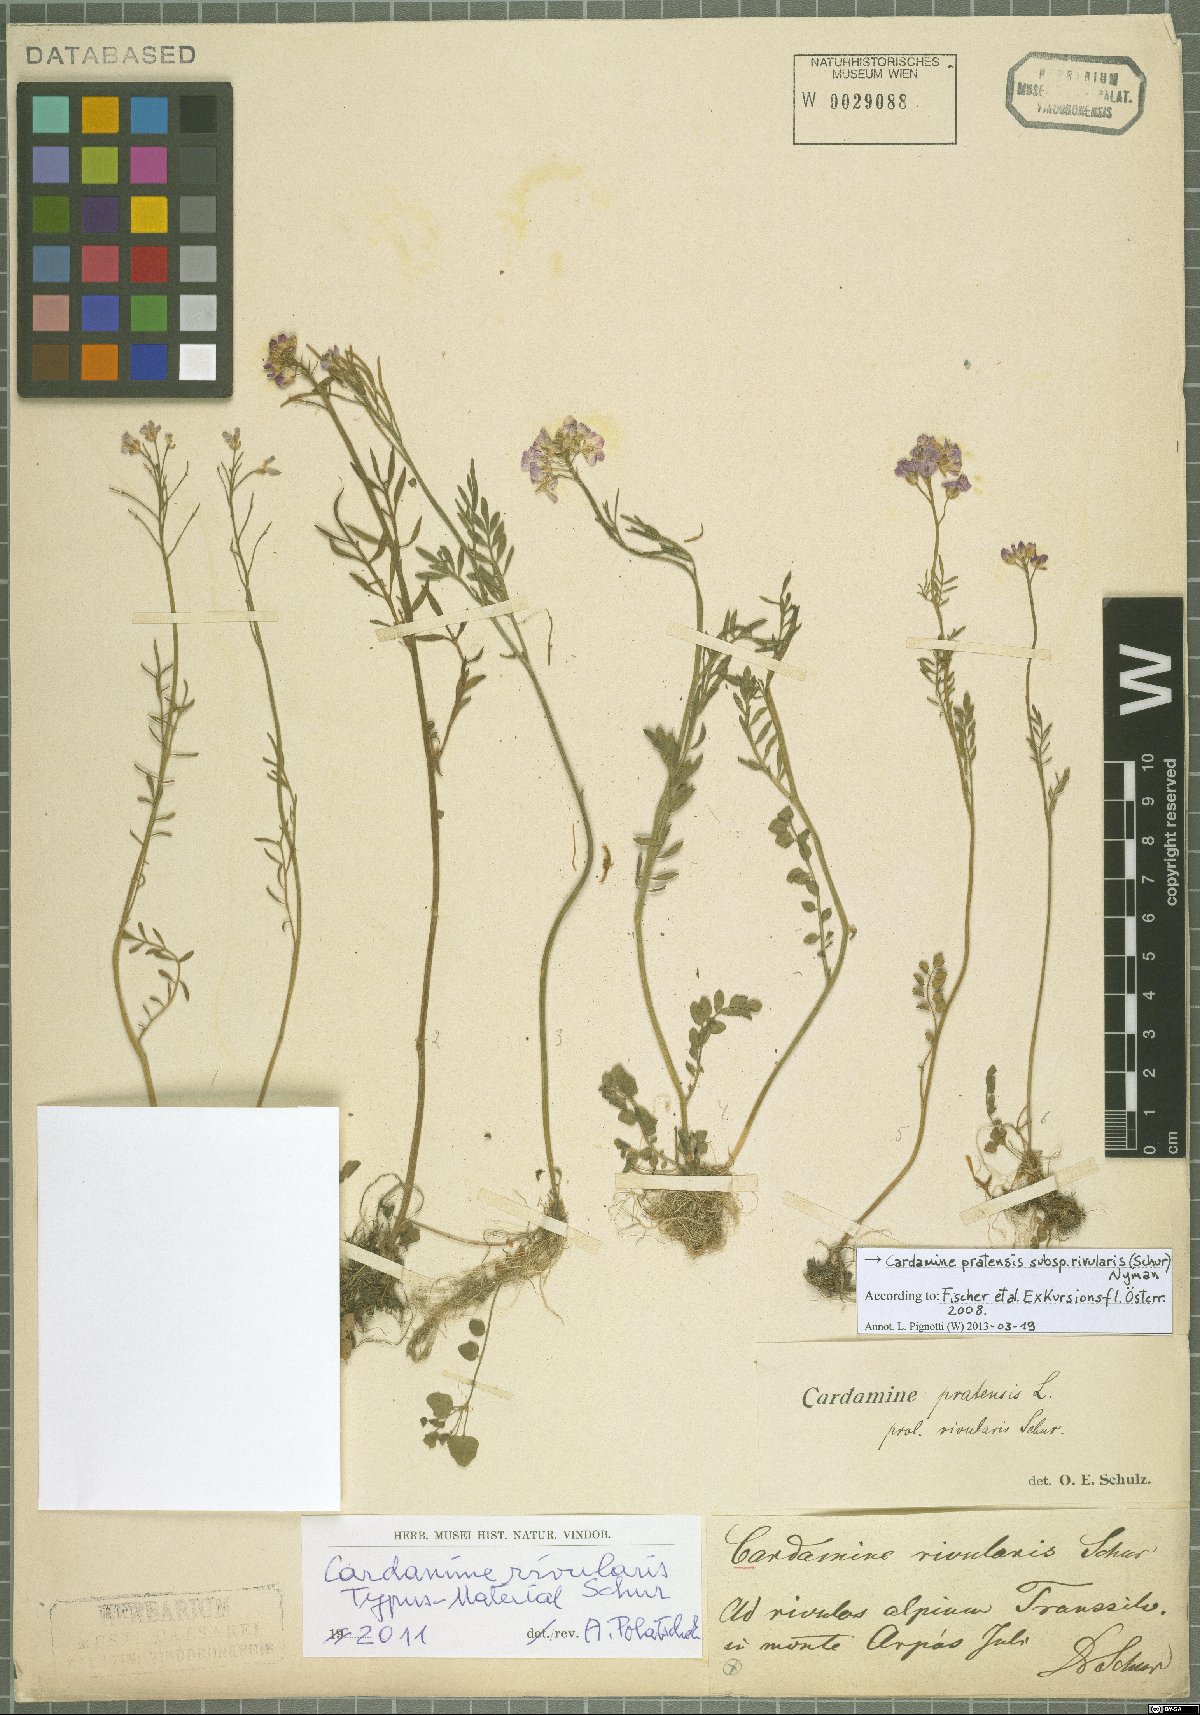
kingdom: Plantae
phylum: Tracheophyta
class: Magnoliopsida
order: Brassicales
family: Brassicaceae
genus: Cardamine
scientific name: Cardamine pratensis
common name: Cuckoo flower
